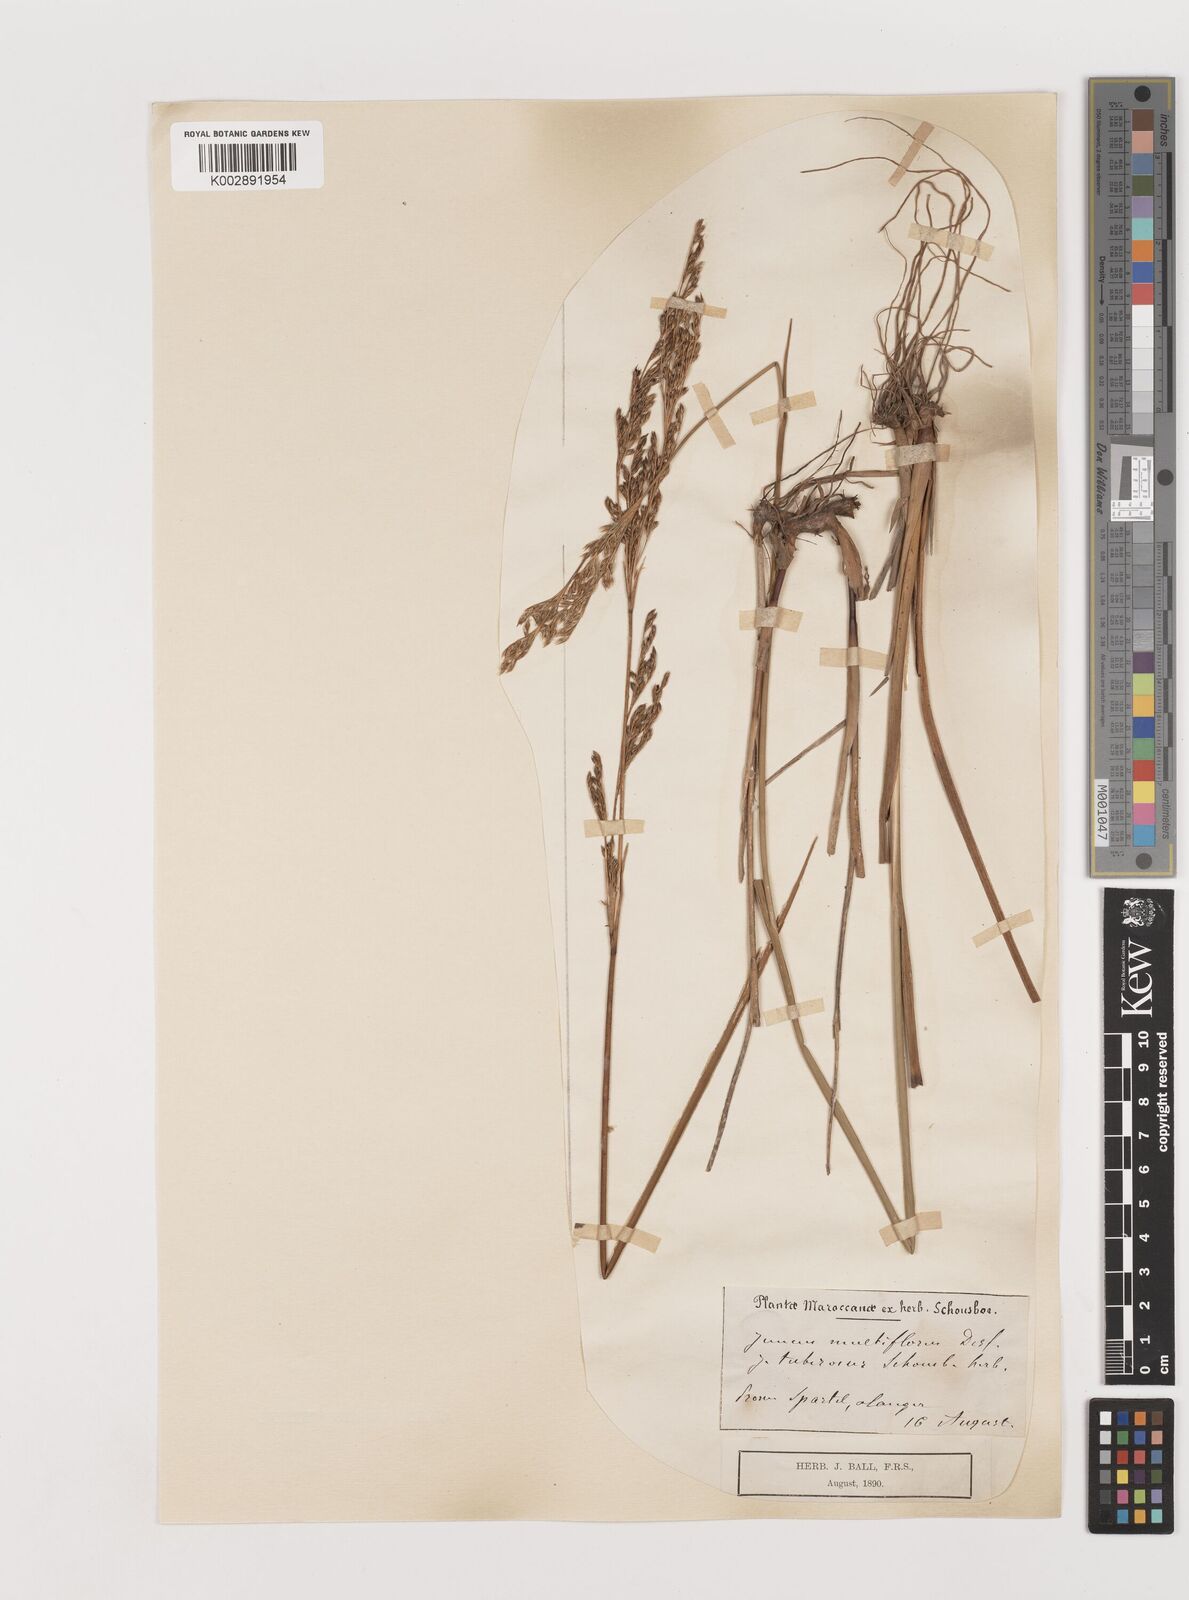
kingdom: Plantae
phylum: Tracheophyta
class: Liliopsida
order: Poales
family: Juncaceae
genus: Juncus
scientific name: Juncus subulatus
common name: Somerset rush
